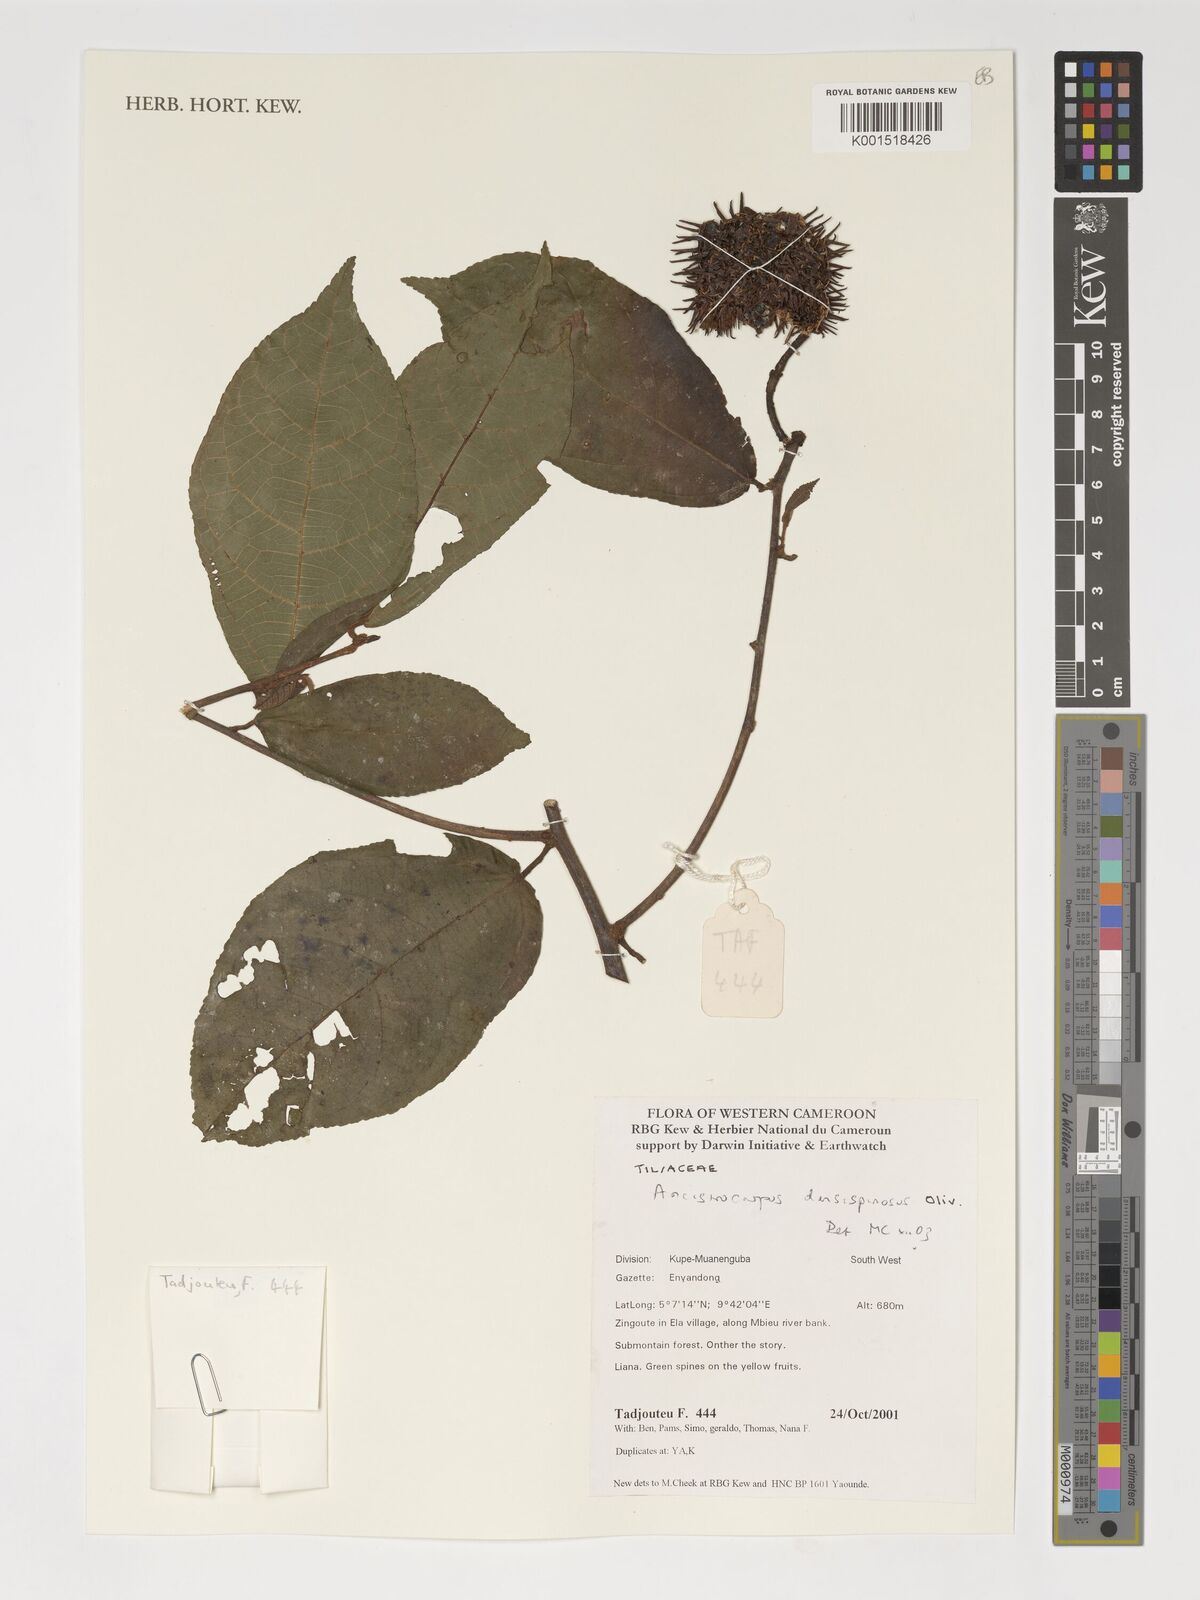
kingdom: Plantae
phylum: Tracheophyta
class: Magnoliopsida
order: Malvales
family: Malvaceae
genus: Ancistrocarpus
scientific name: Ancistrocarpus densispinosus
